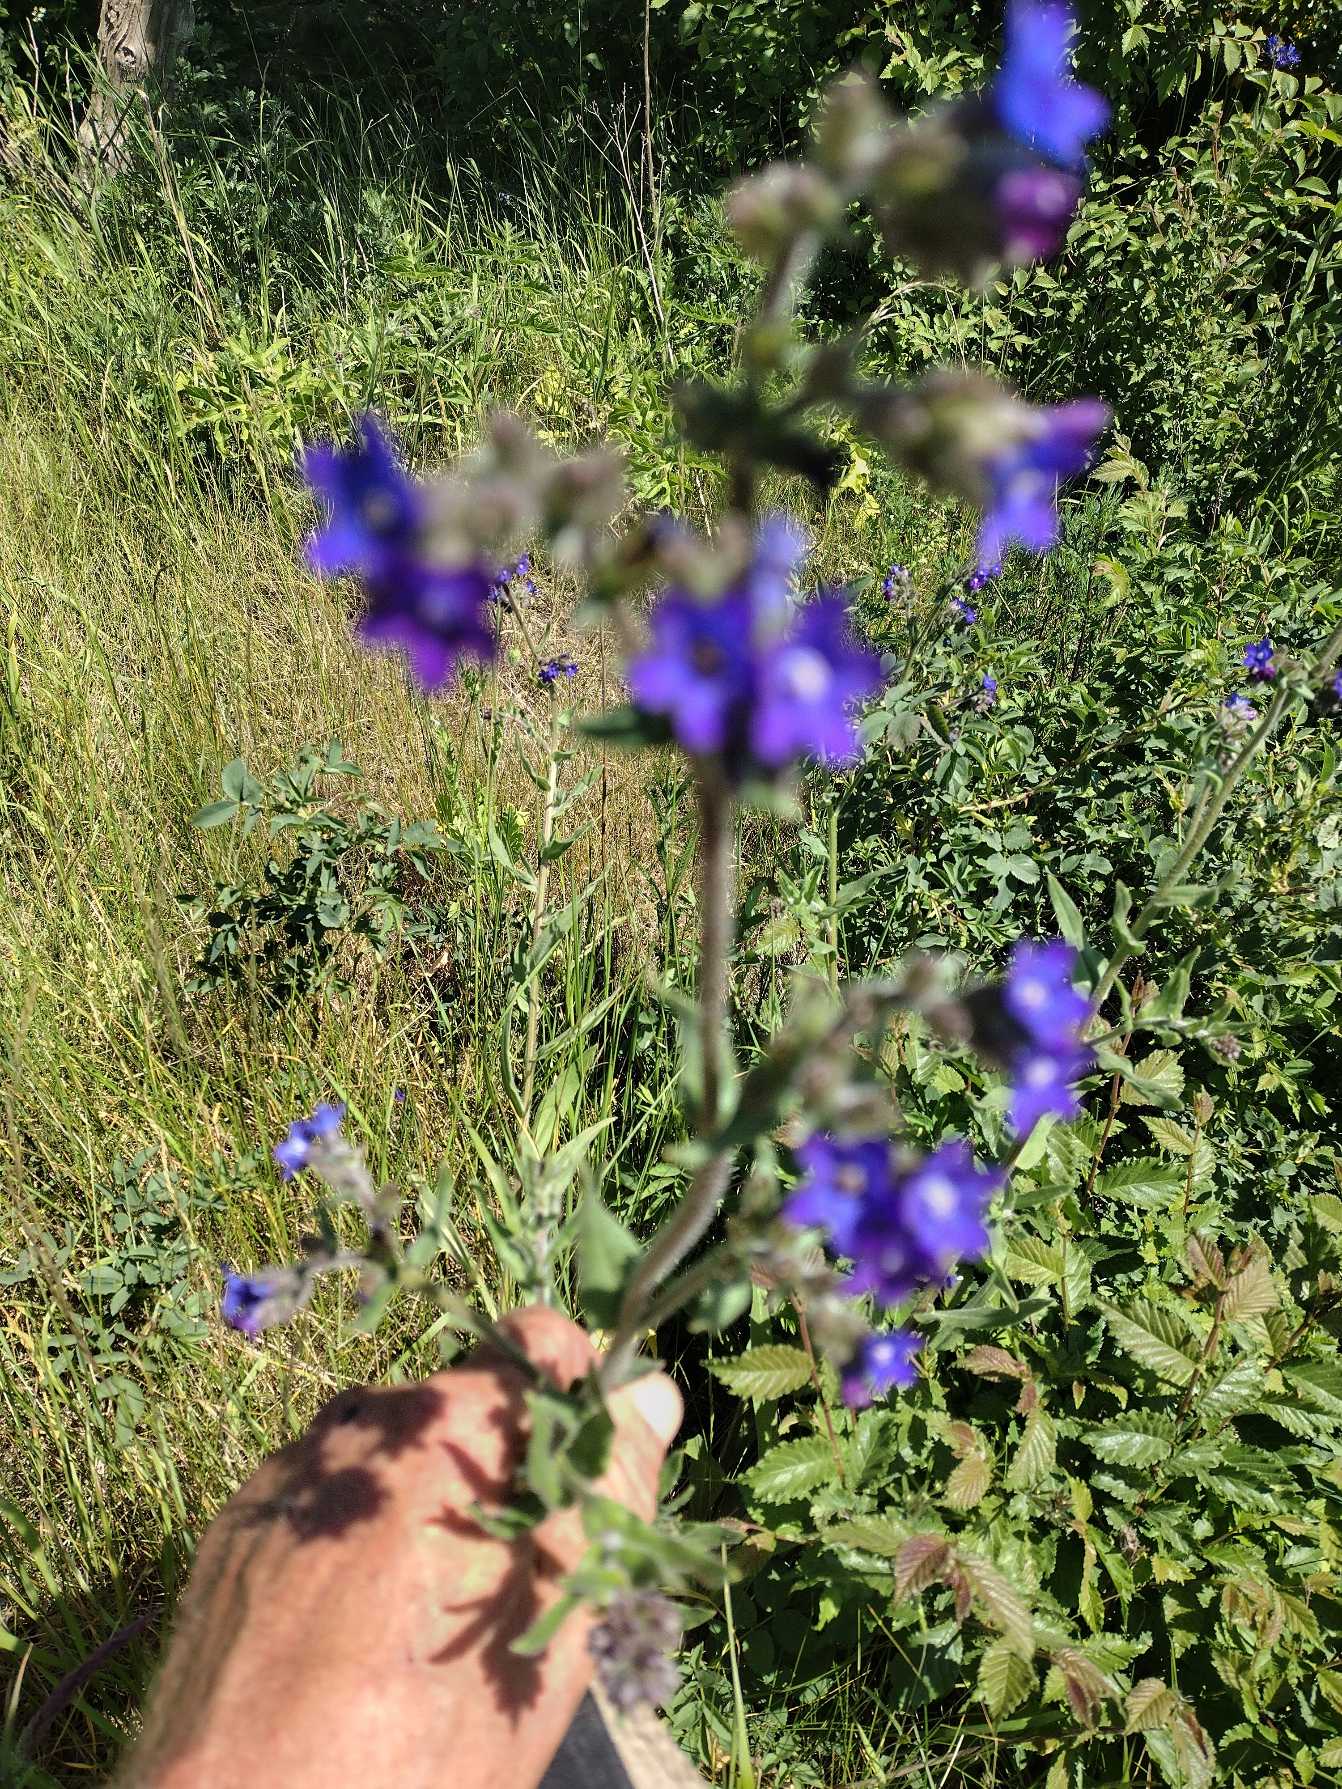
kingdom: Plantae
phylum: Tracheophyta
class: Magnoliopsida
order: Boraginales
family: Boraginaceae
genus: Anchusa
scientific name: Anchusa officinalis
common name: Læge-oksetunge
